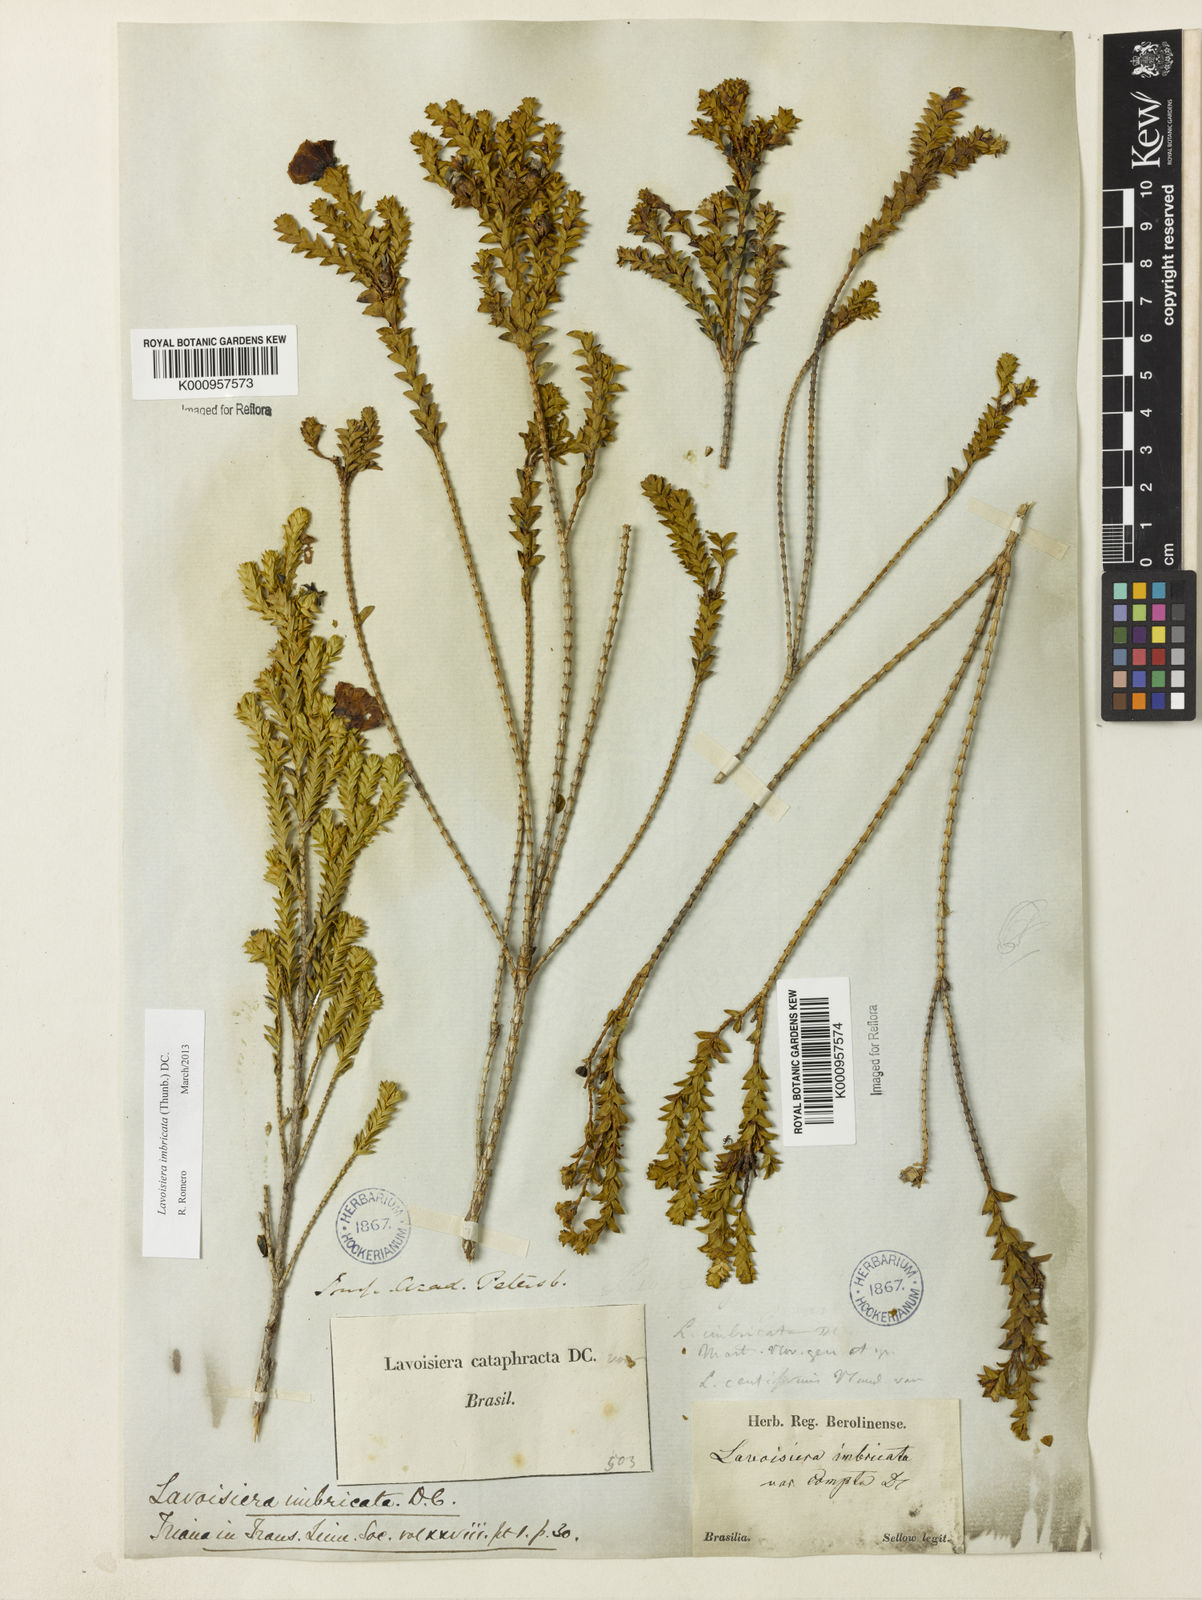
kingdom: Plantae
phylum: Tracheophyta
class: Magnoliopsida
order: Myrtales
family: Melastomataceae
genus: Microlicia
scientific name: Microlicia cataphracta
